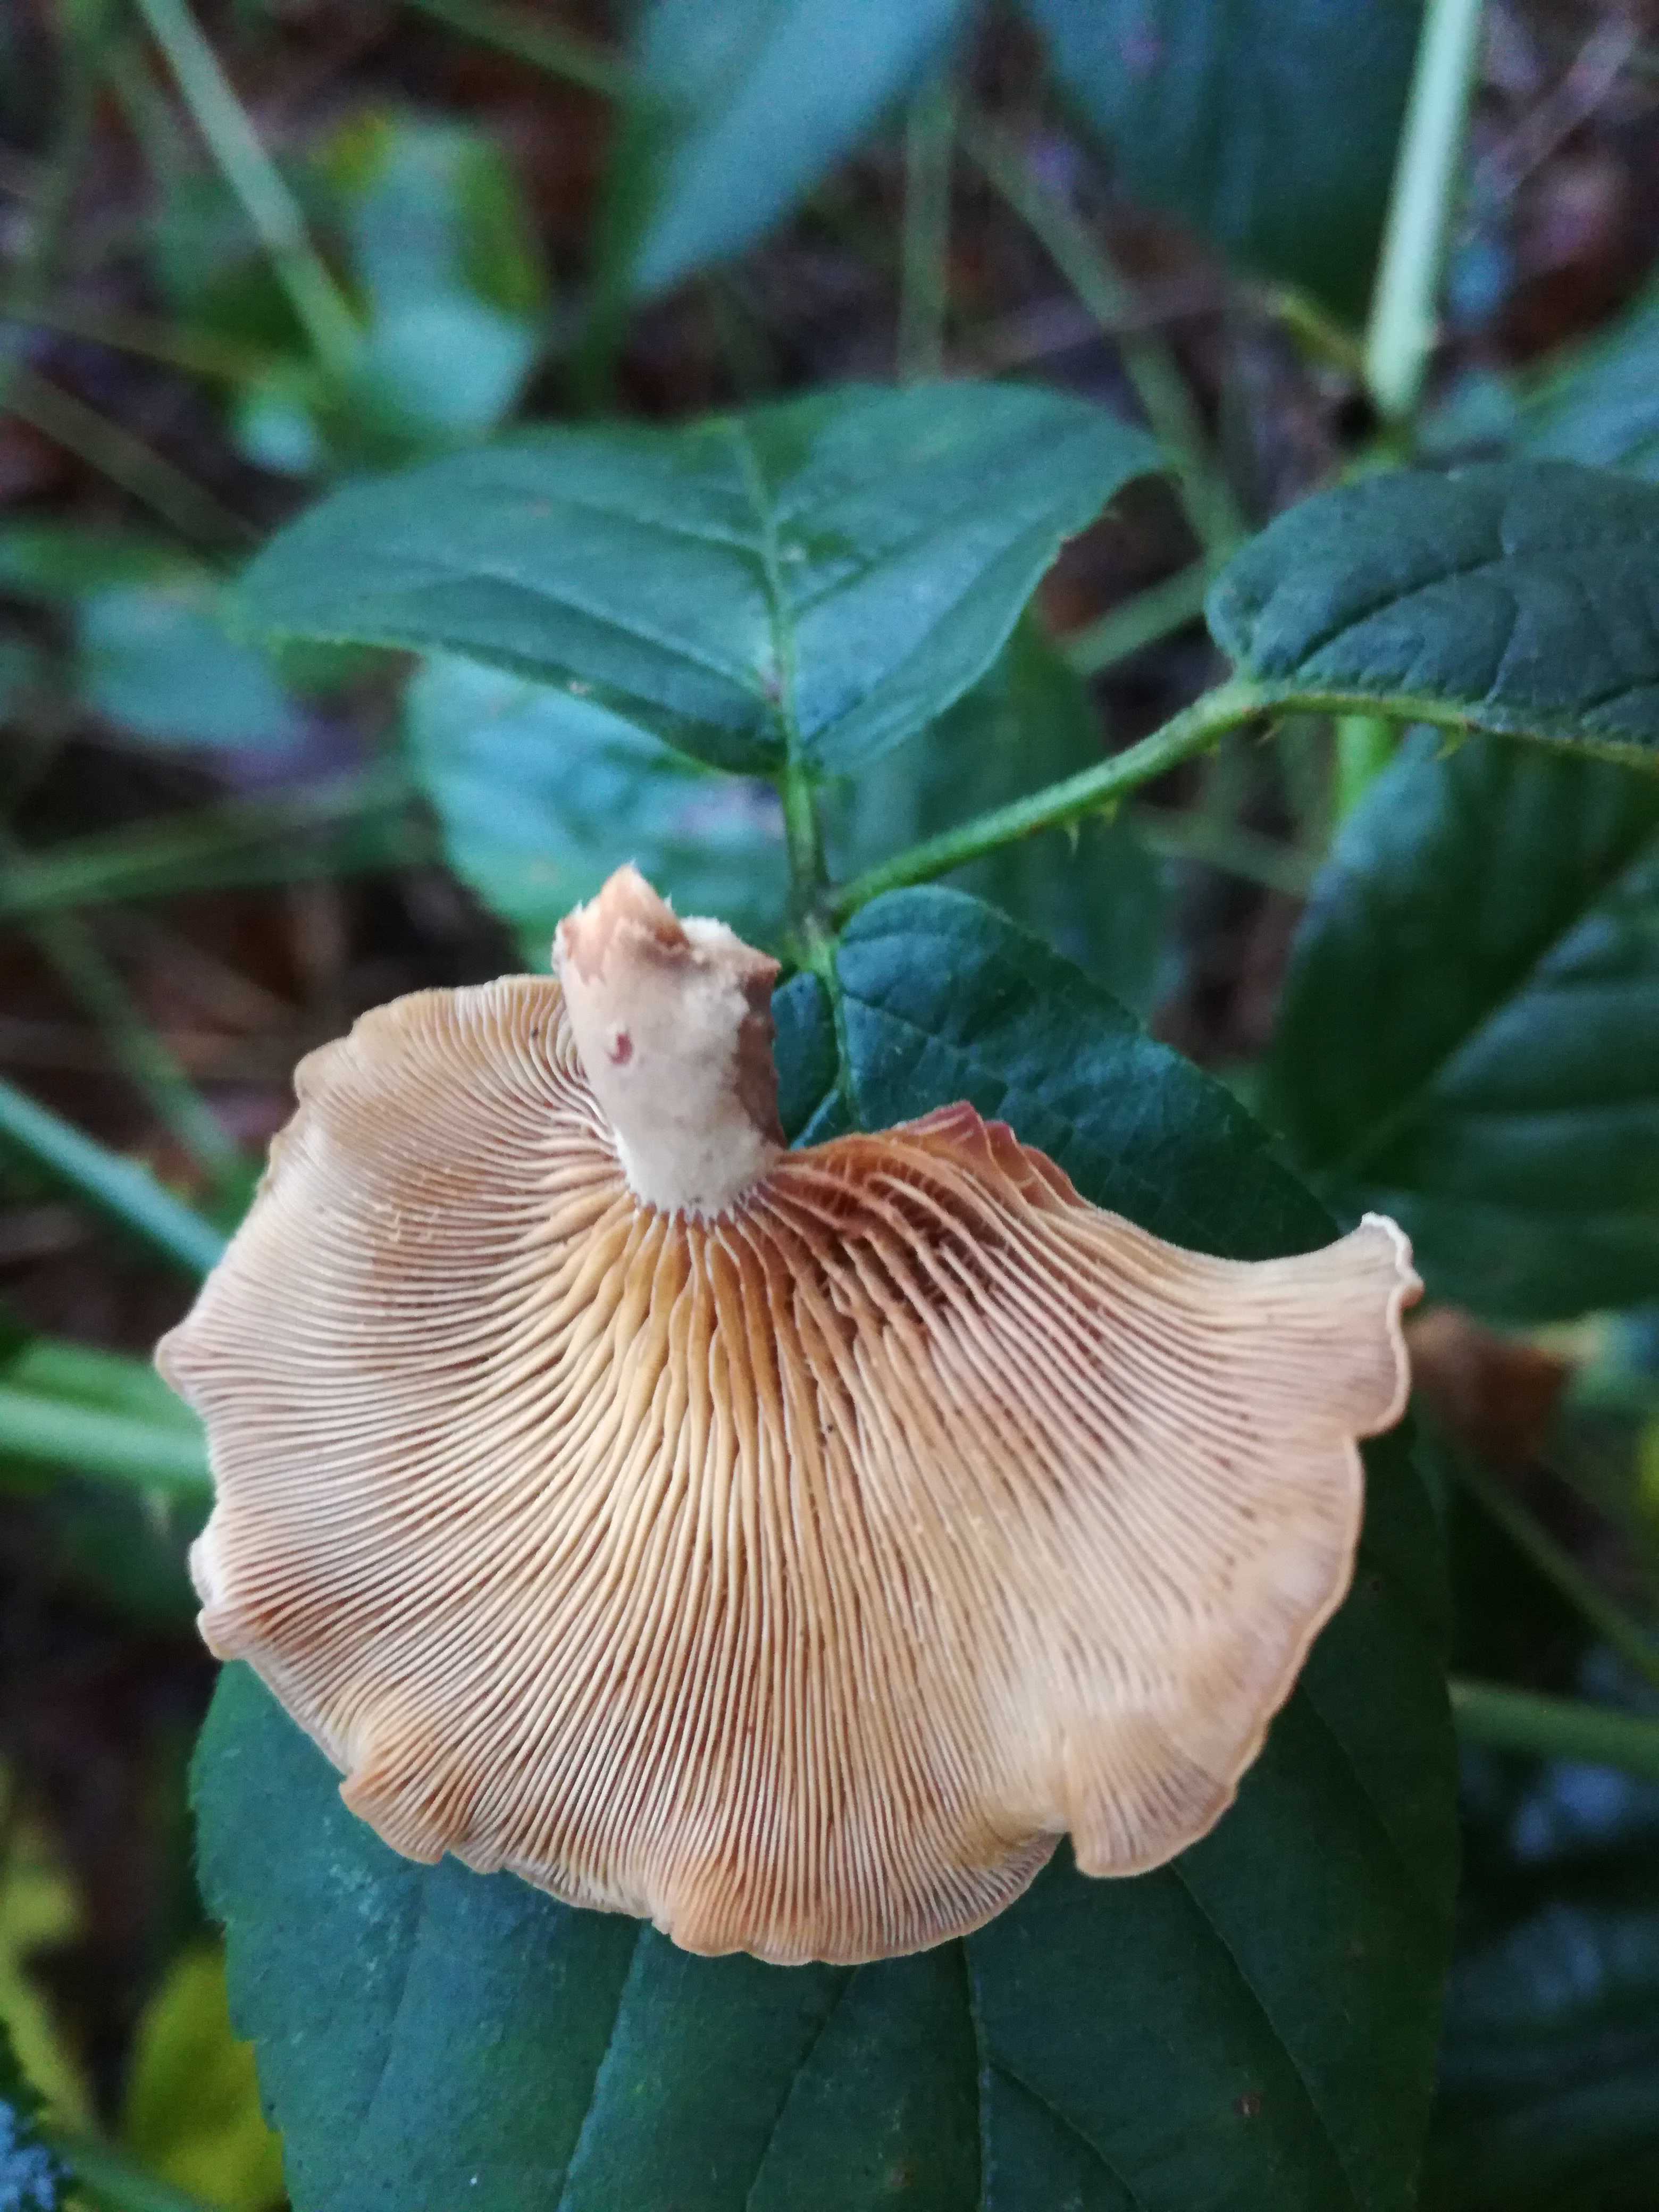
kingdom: Fungi
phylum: Basidiomycota
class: Agaricomycetes
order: Agaricales
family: Mycenaceae
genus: Panellus
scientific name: Panellus stipticus
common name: kliddet epaulethat
